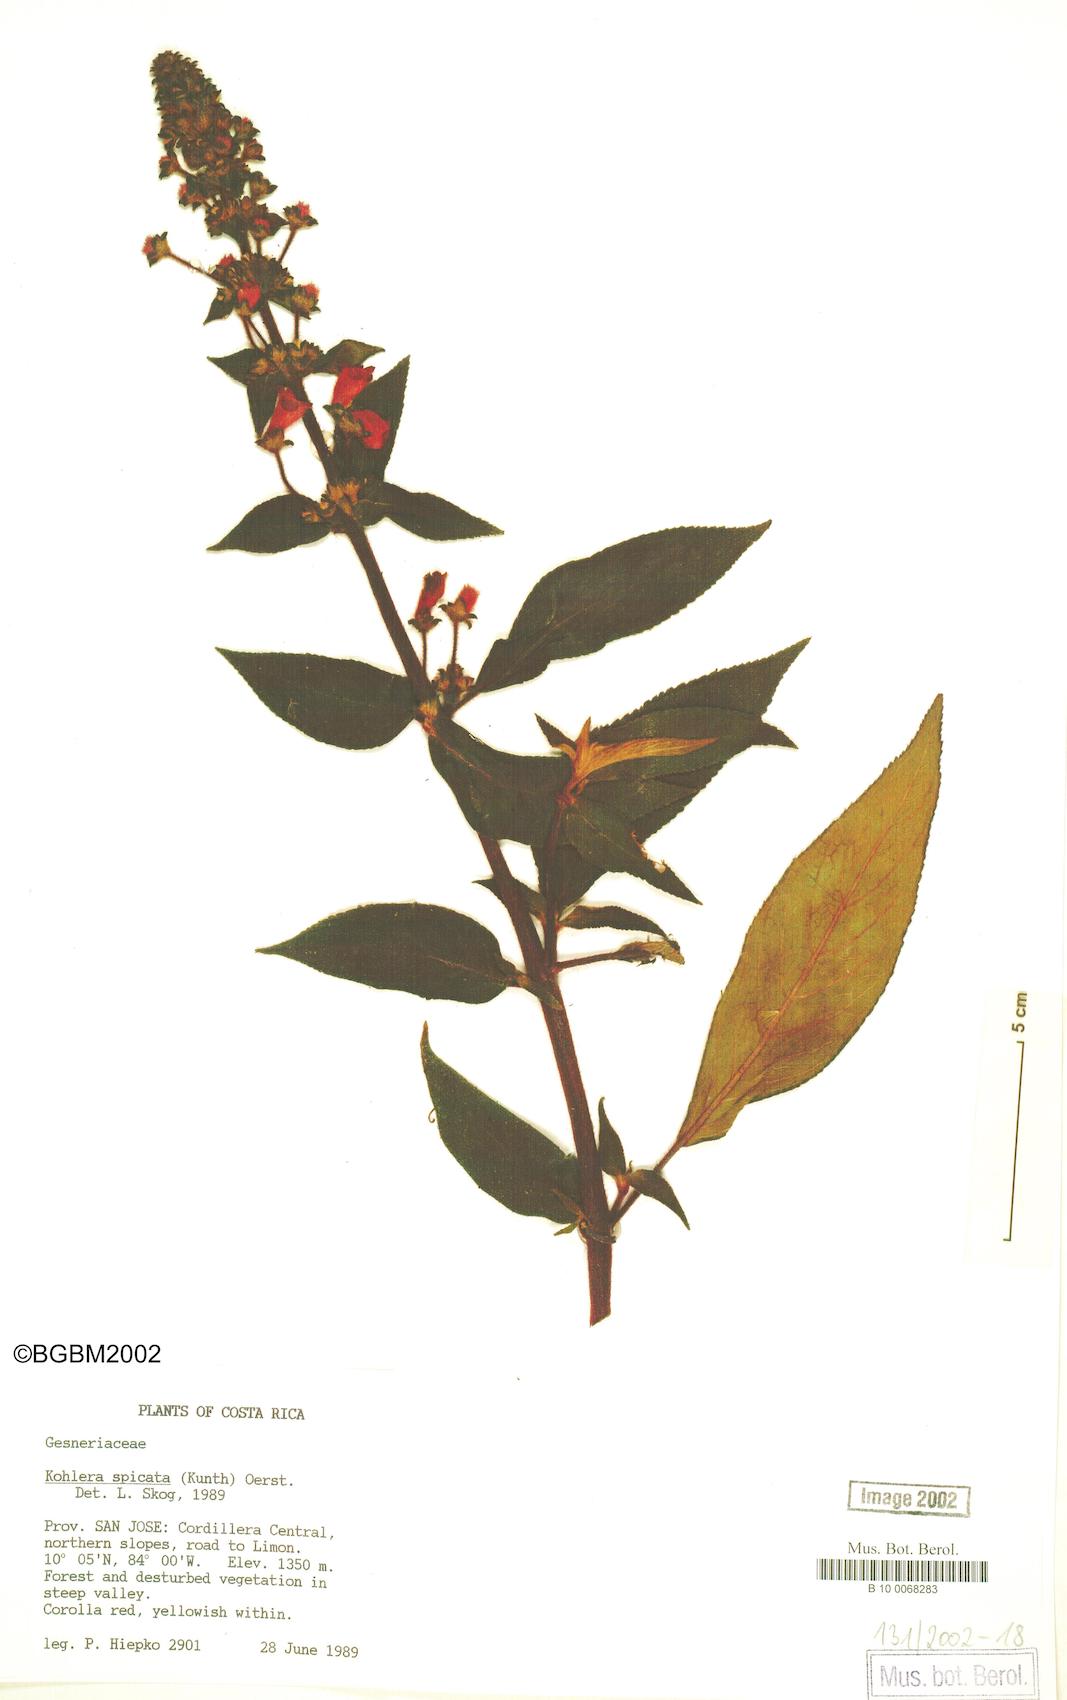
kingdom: Plantae
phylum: Tracheophyta
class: Magnoliopsida
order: Lamiales
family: Gesneriaceae
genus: Kohleria
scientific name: Kohleria spicata
